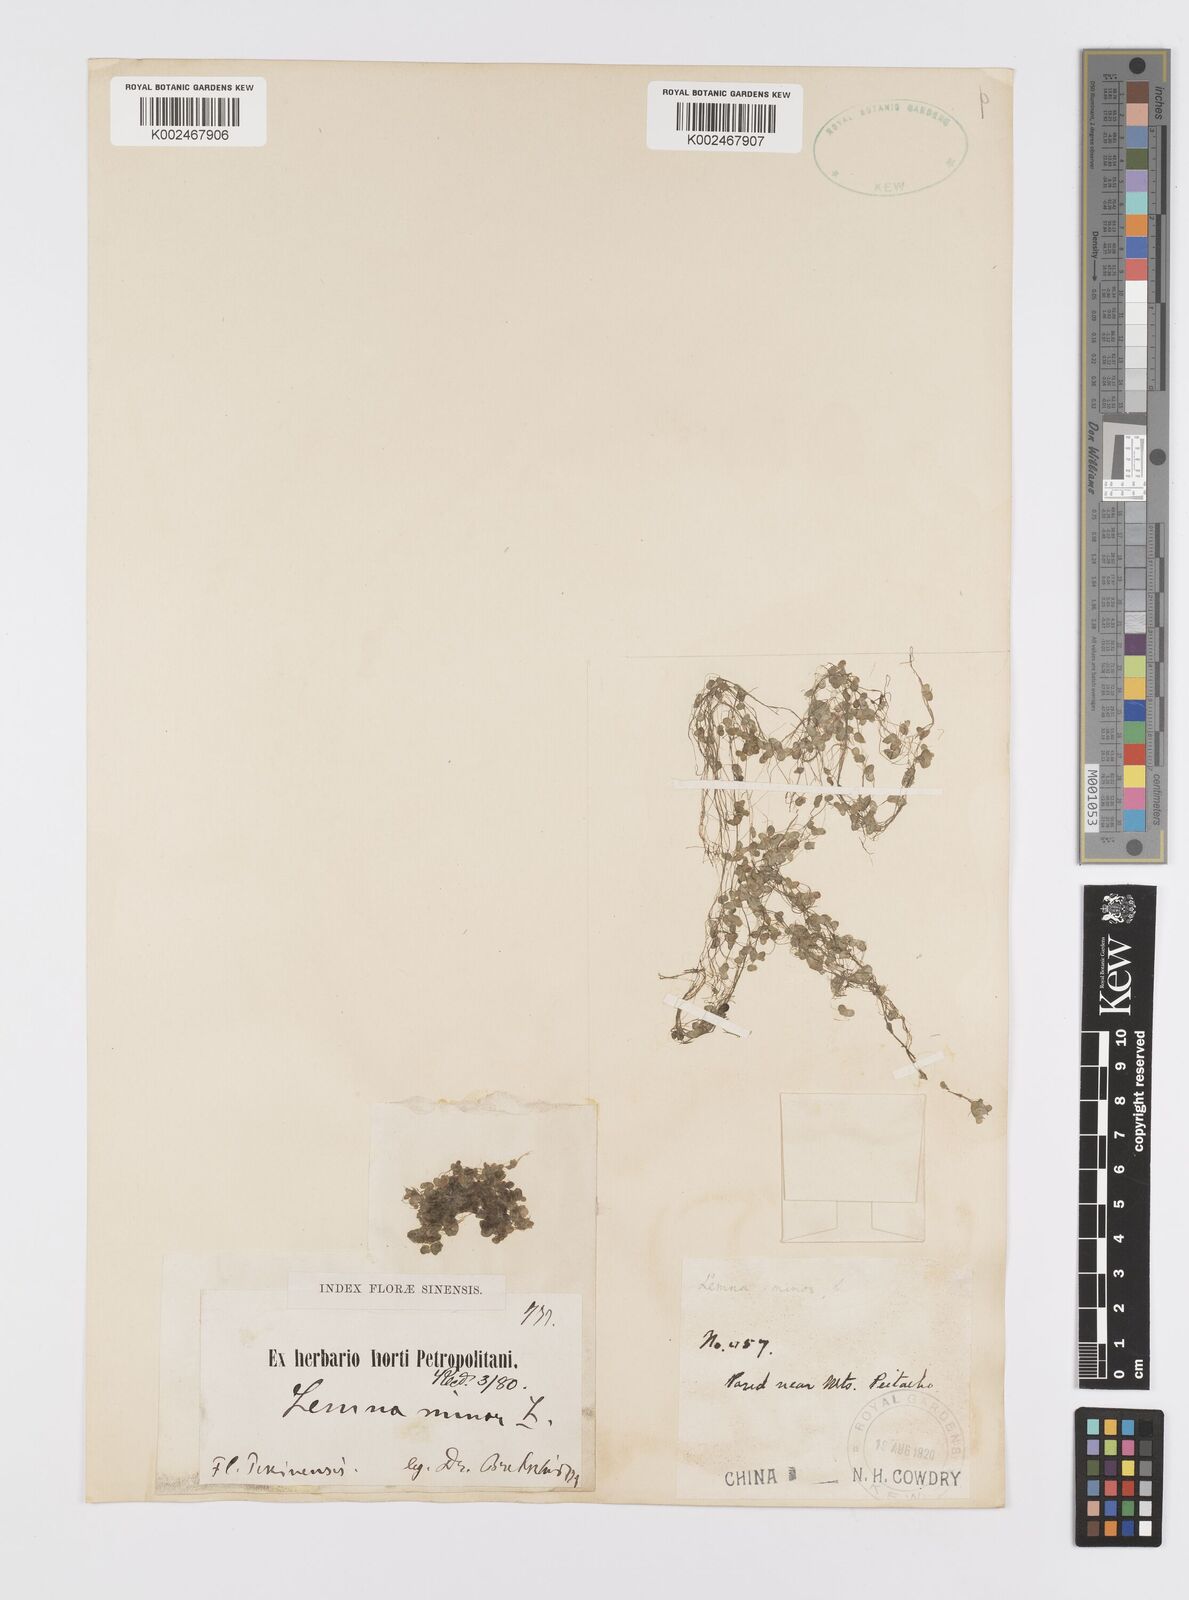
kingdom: Plantae
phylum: Tracheophyta
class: Liliopsida
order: Alismatales
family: Araceae
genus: Lemna
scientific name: Lemna minor
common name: Common duckweed
